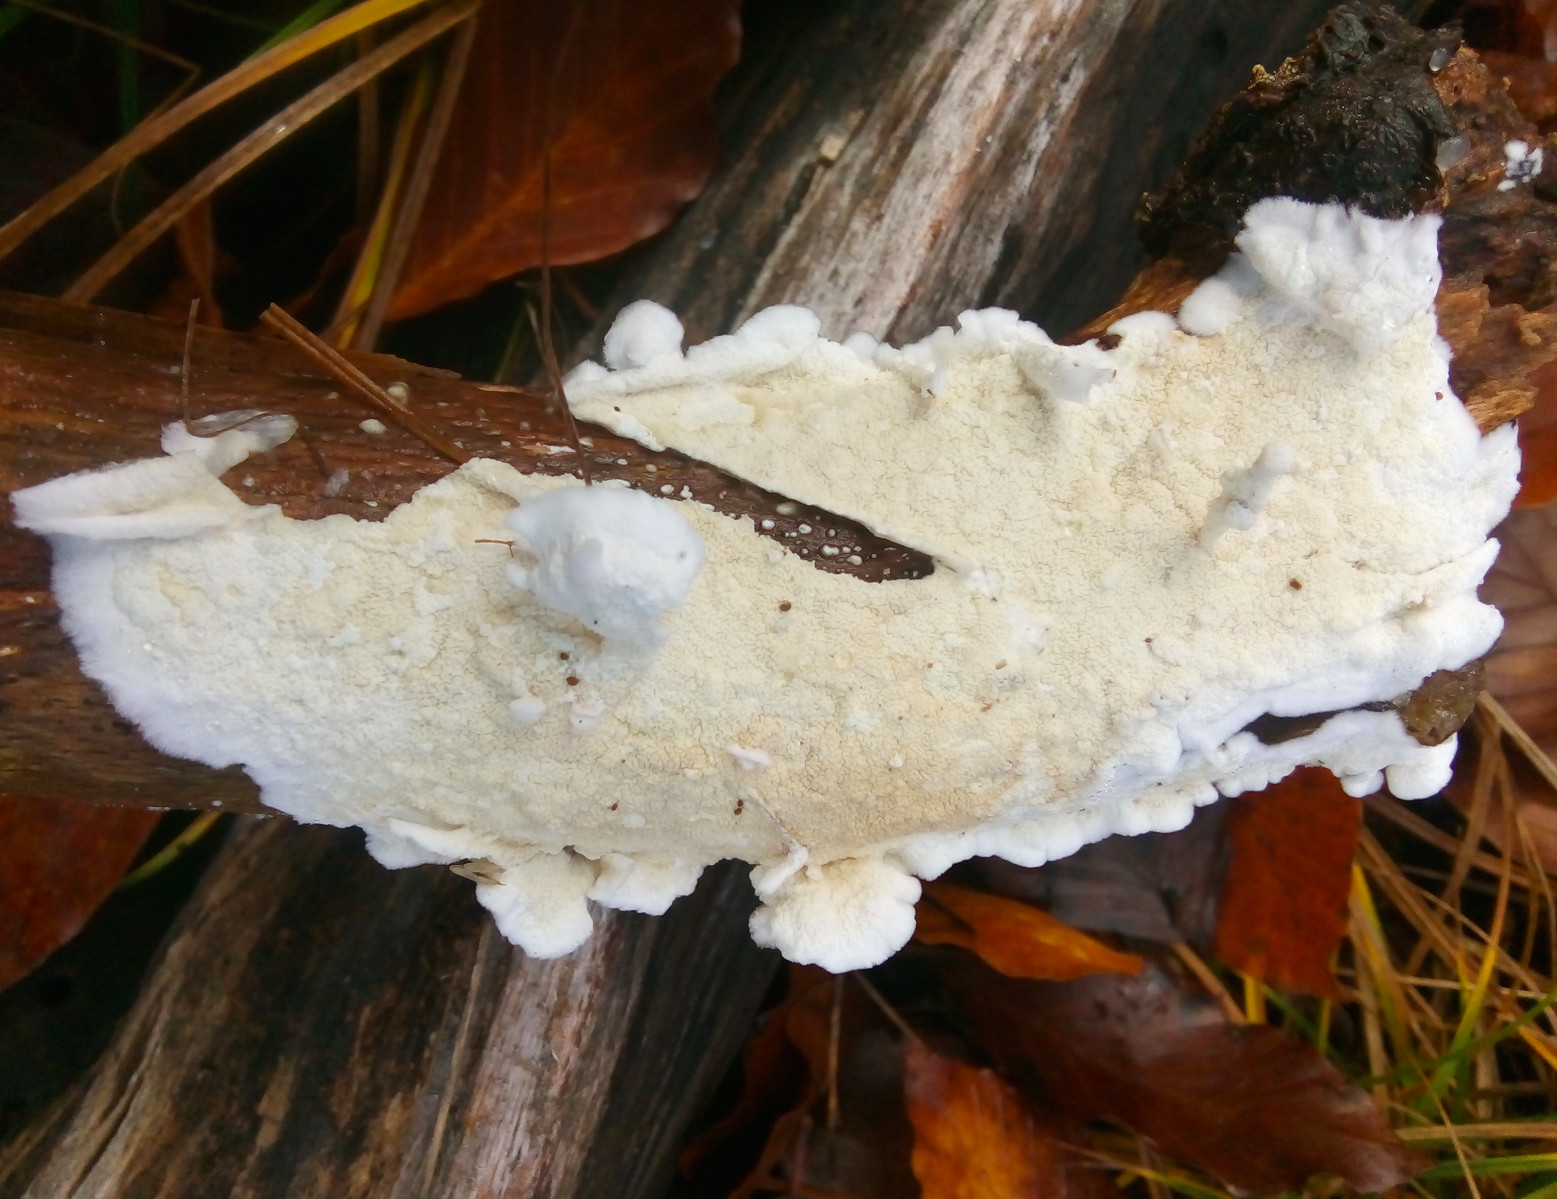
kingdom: Fungi
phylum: Basidiomycota
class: Agaricomycetes
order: Polyporales
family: Irpicaceae
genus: Byssomerulius
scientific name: Byssomerulius corium
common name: læder-åresvamp
